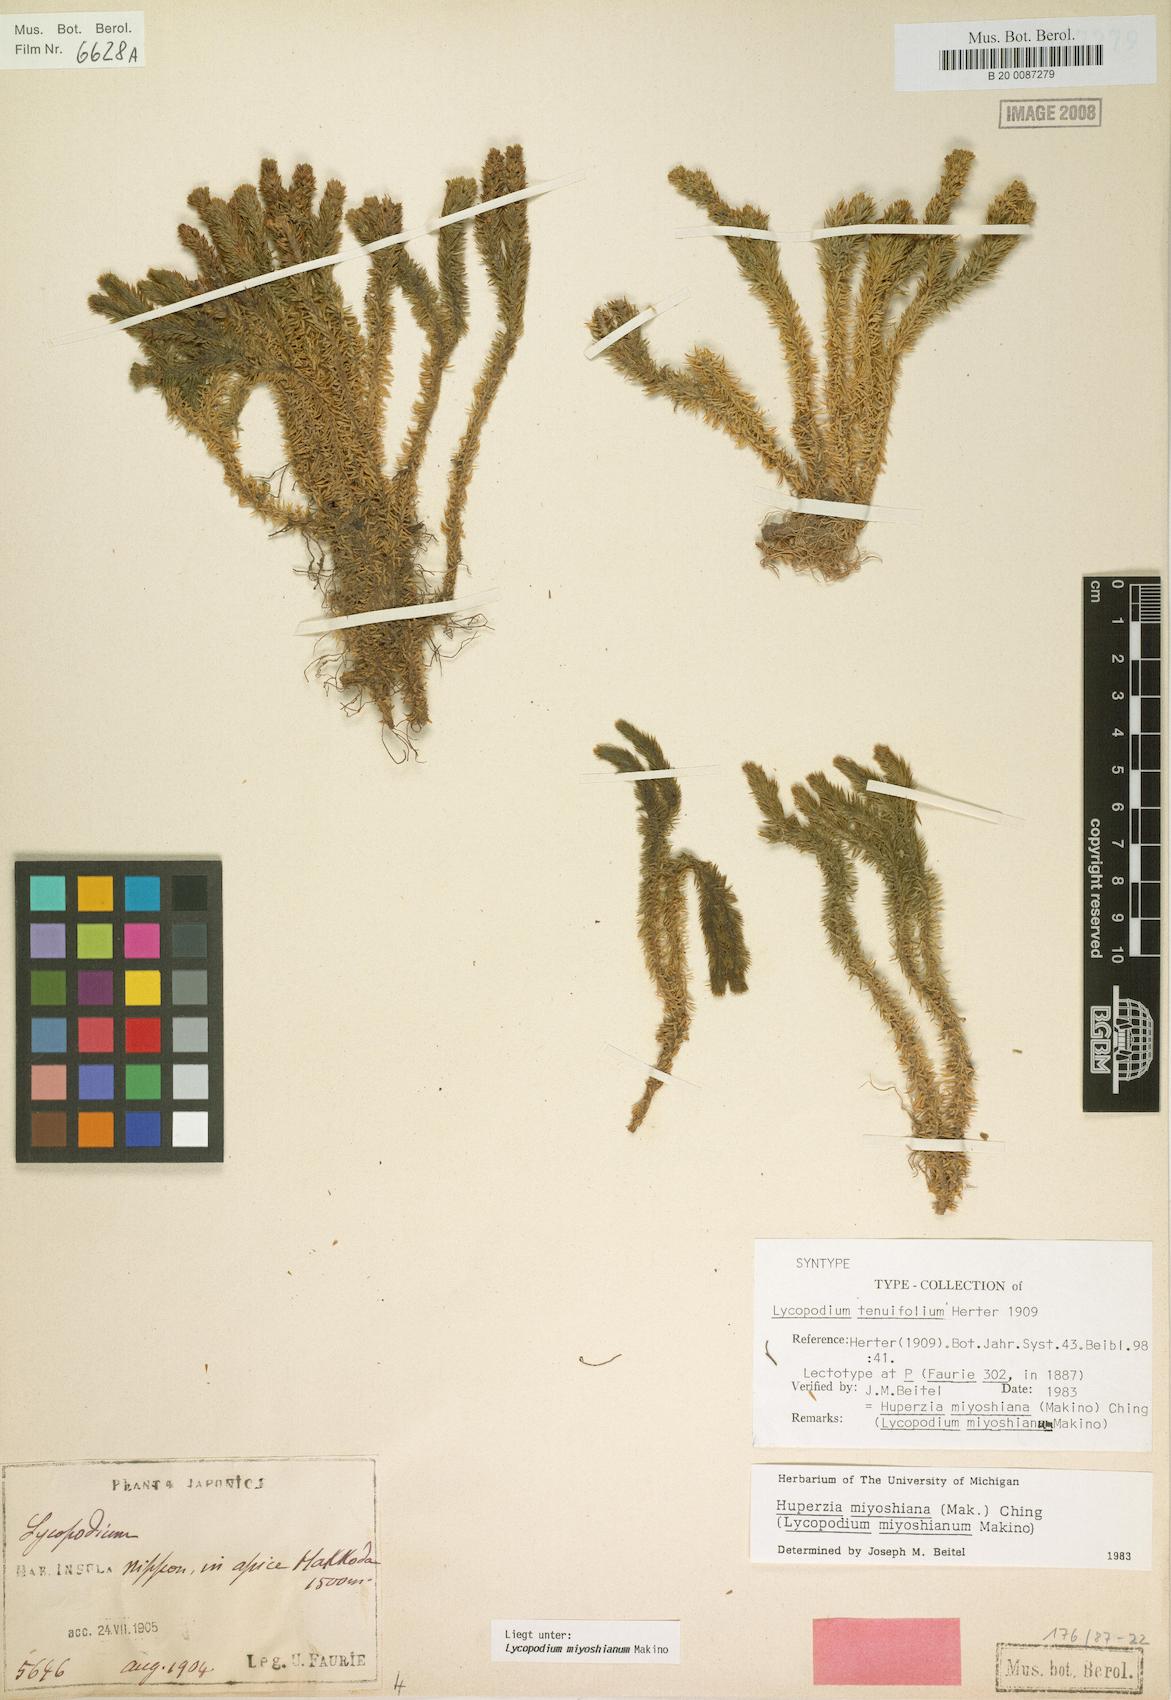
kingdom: Plantae
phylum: Tracheophyta
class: Lycopodiopsida
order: Lycopodiales
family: Lycopodiaceae
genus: Huperzia
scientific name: Huperzia miyoshiana
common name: Chinese clubmoss
